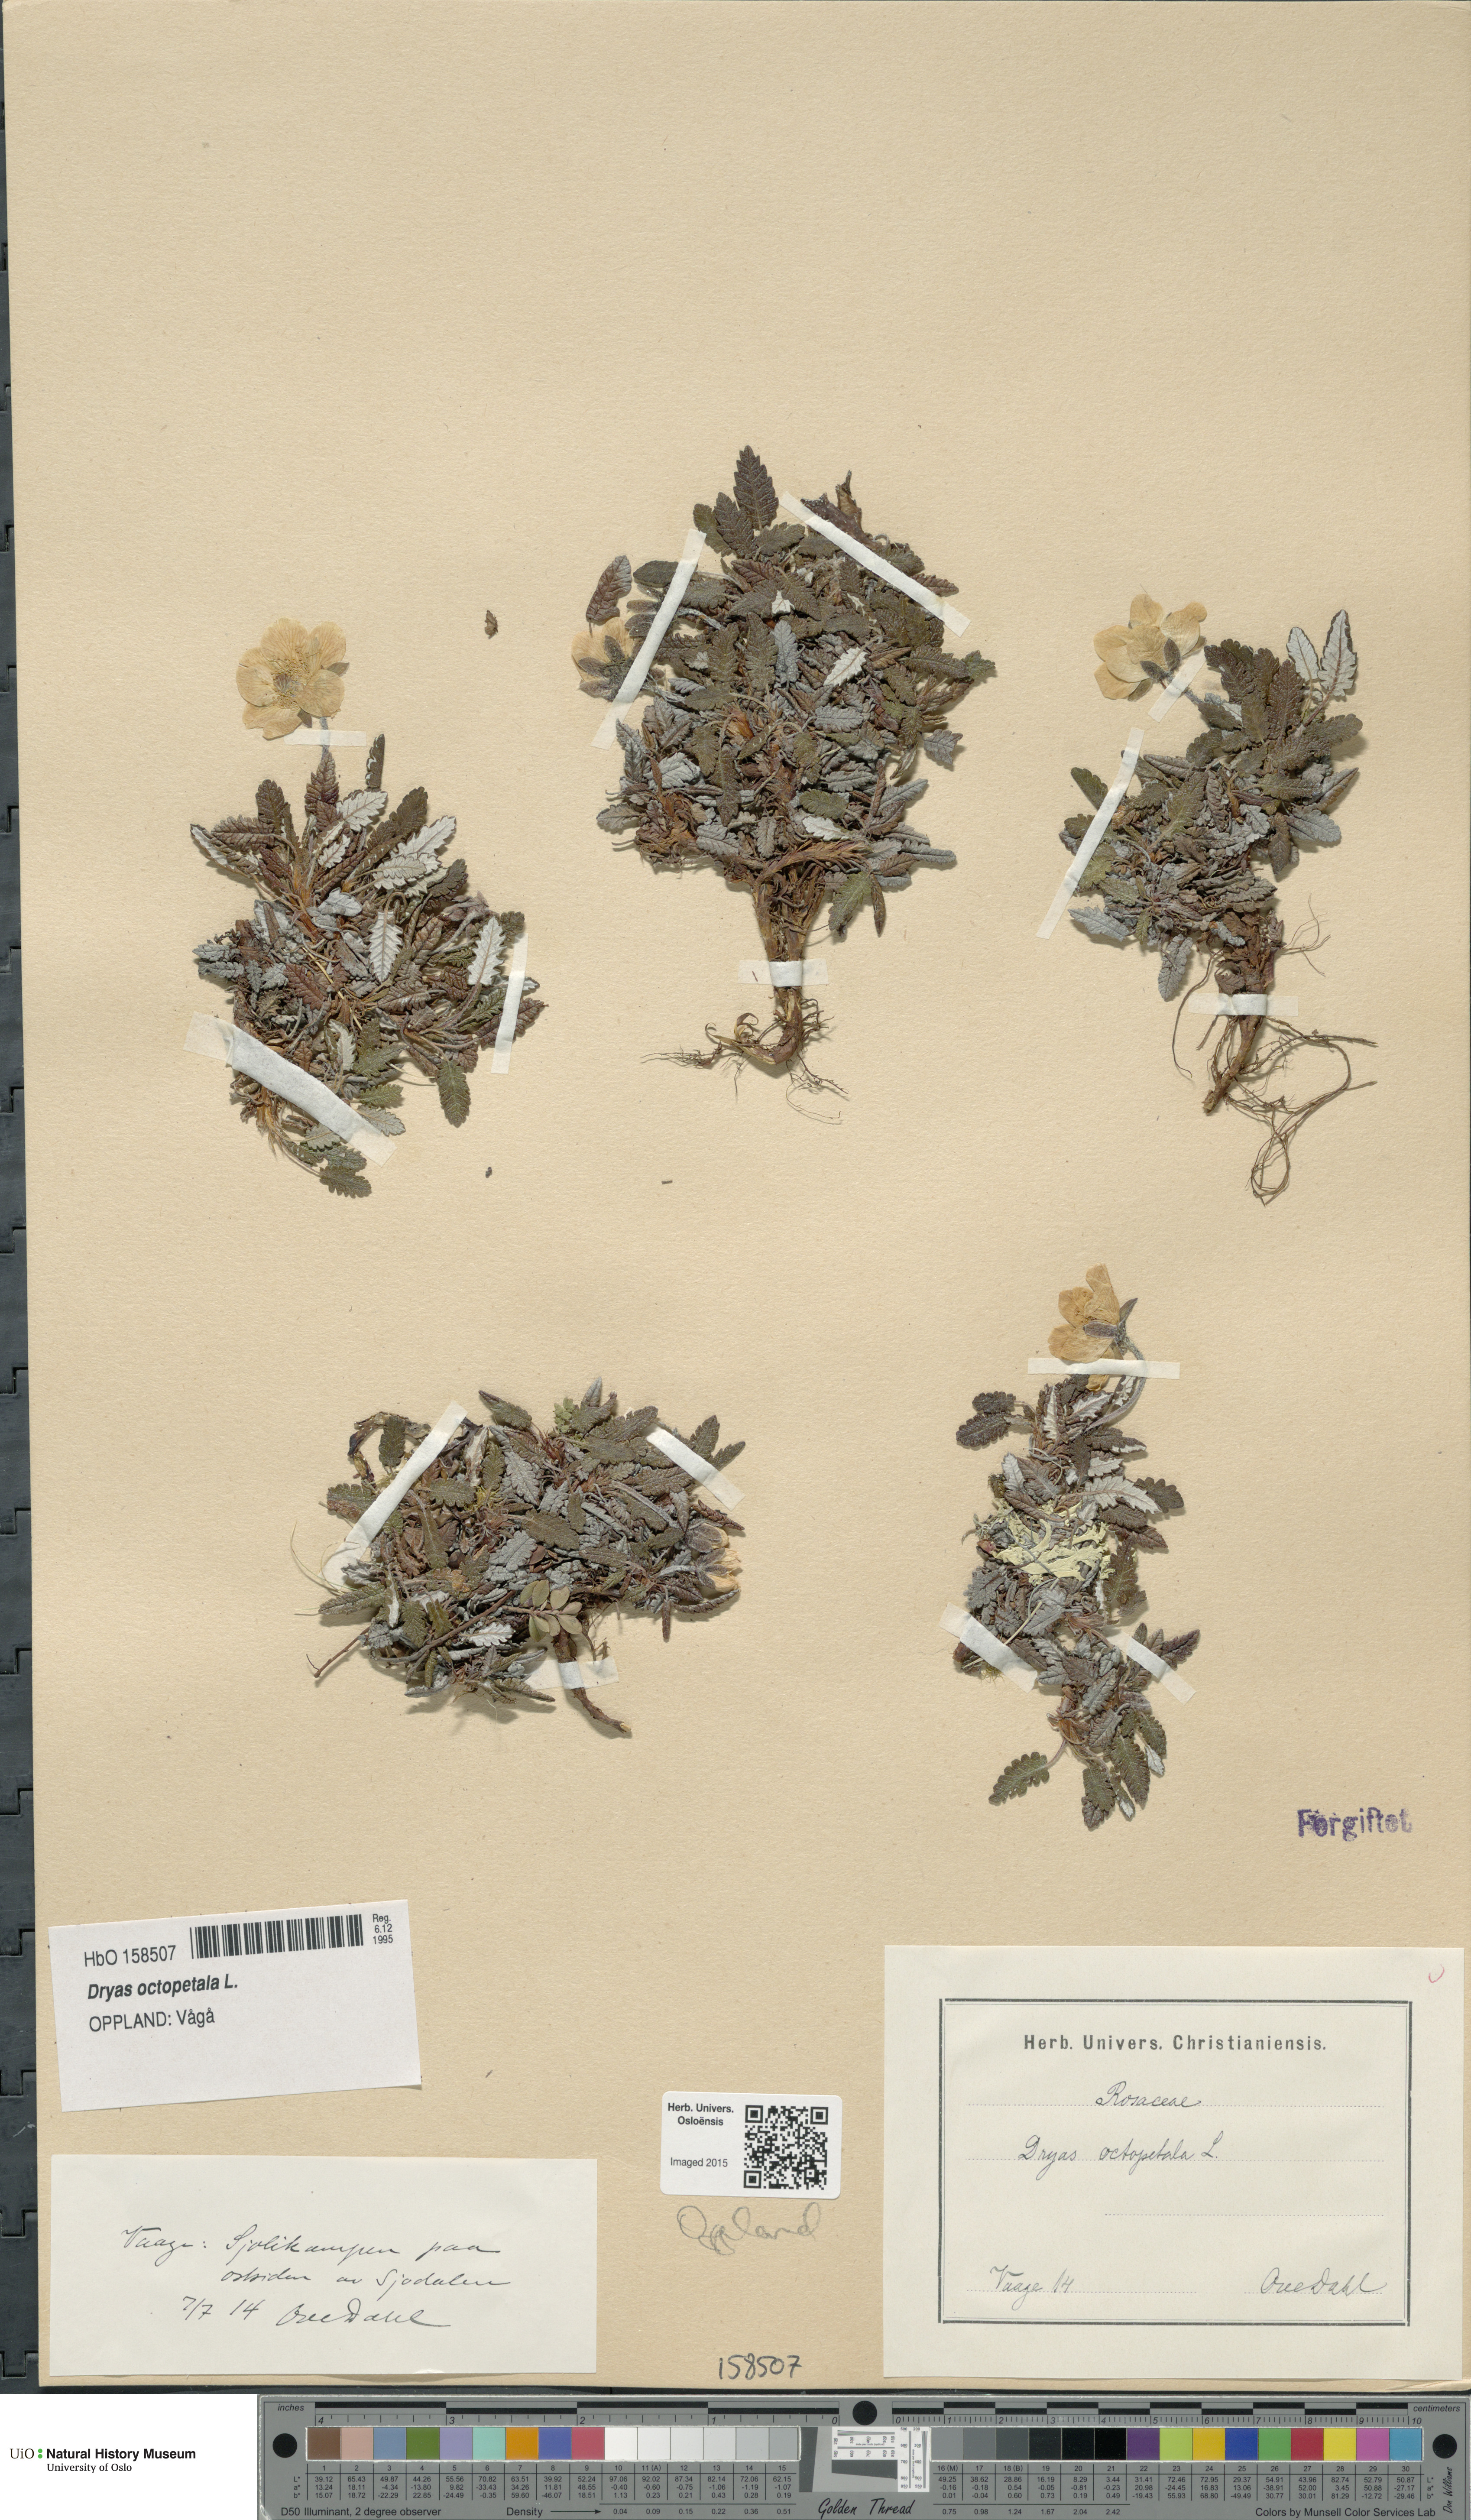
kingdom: Plantae
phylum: Tracheophyta
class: Magnoliopsida
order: Rosales
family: Rosaceae
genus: Dryas
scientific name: Dryas octopetala
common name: Eight-petal mountain-avens
